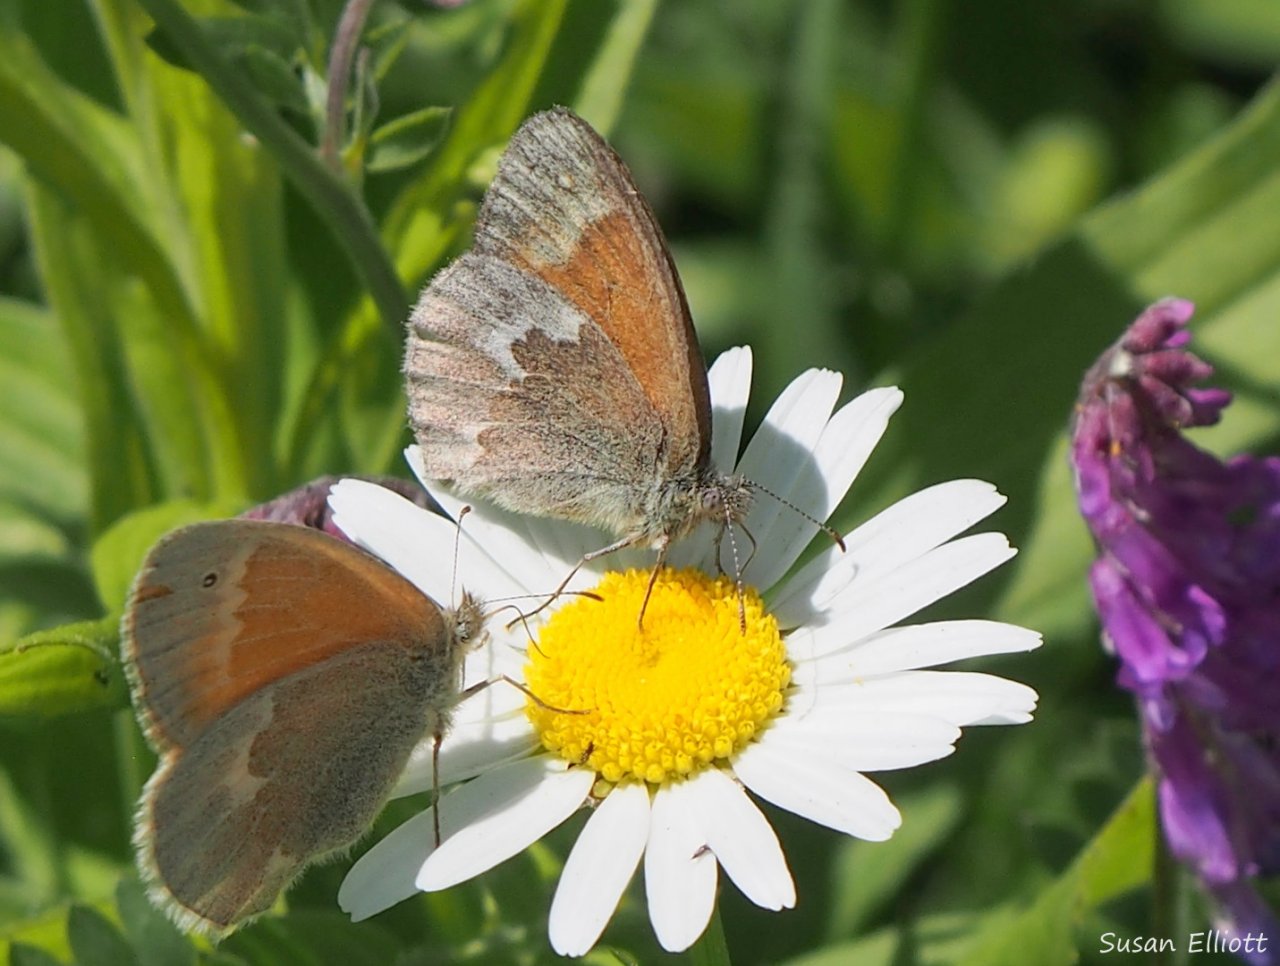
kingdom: Animalia
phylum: Arthropoda
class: Insecta
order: Lepidoptera
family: Nymphalidae
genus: Coenonympha
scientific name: Coenonympha tullia
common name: Large Heath
